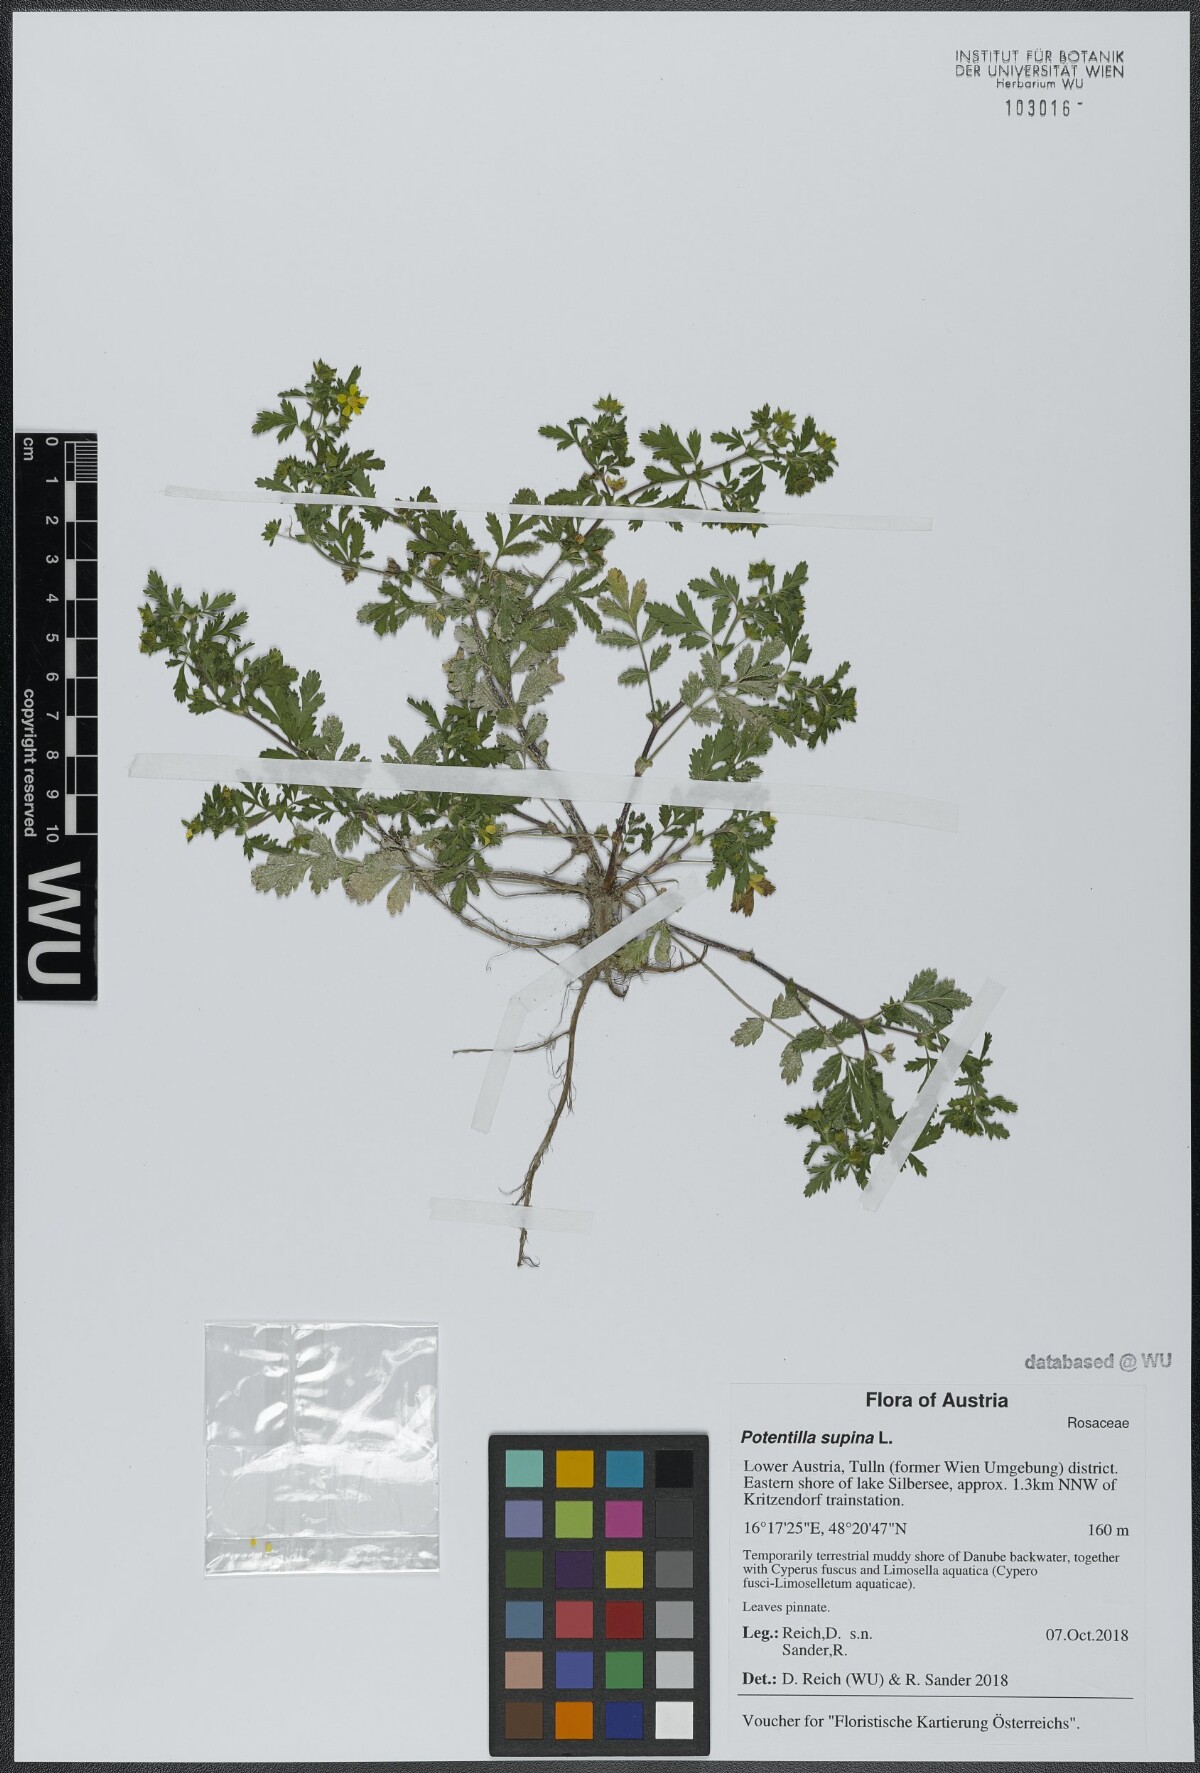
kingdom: Plantae
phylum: Tracheophyta
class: Magnoliopsida
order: Rosales
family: Rosaceae
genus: Potentilla
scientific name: Potentilla supina
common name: Prostrate cinquefoil
